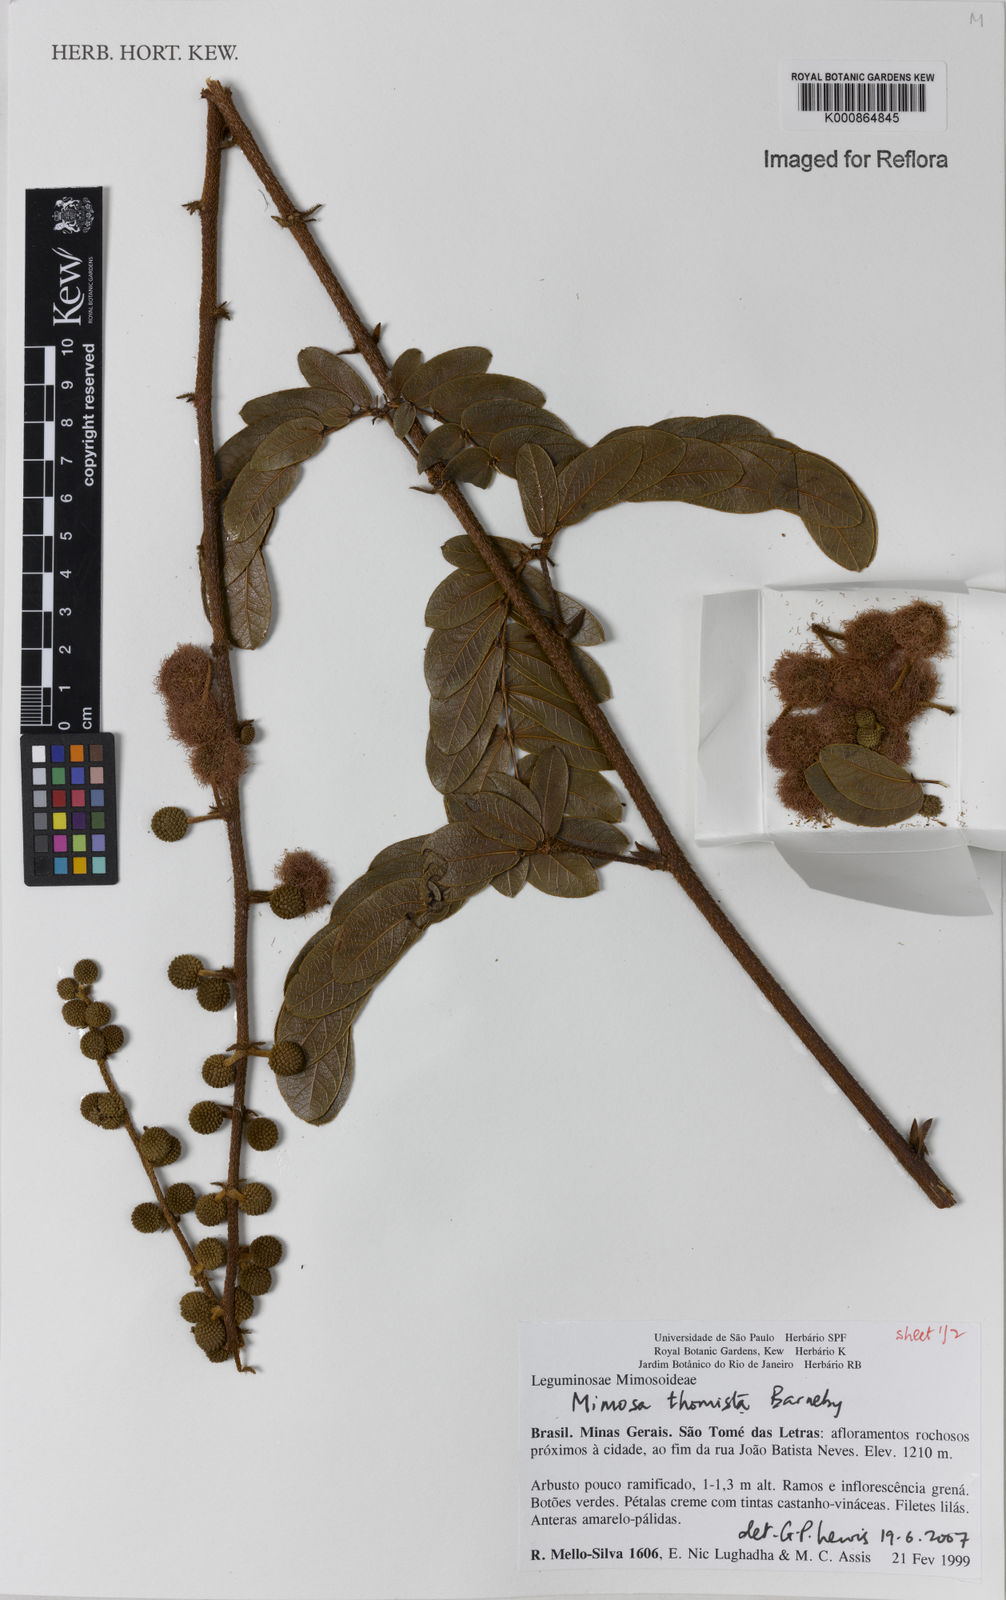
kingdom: Plantae
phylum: Tracheophyta
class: Magnoliopsida
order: Fabales
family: Fabaceae
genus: Mimosa
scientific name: Mimosa thomista
